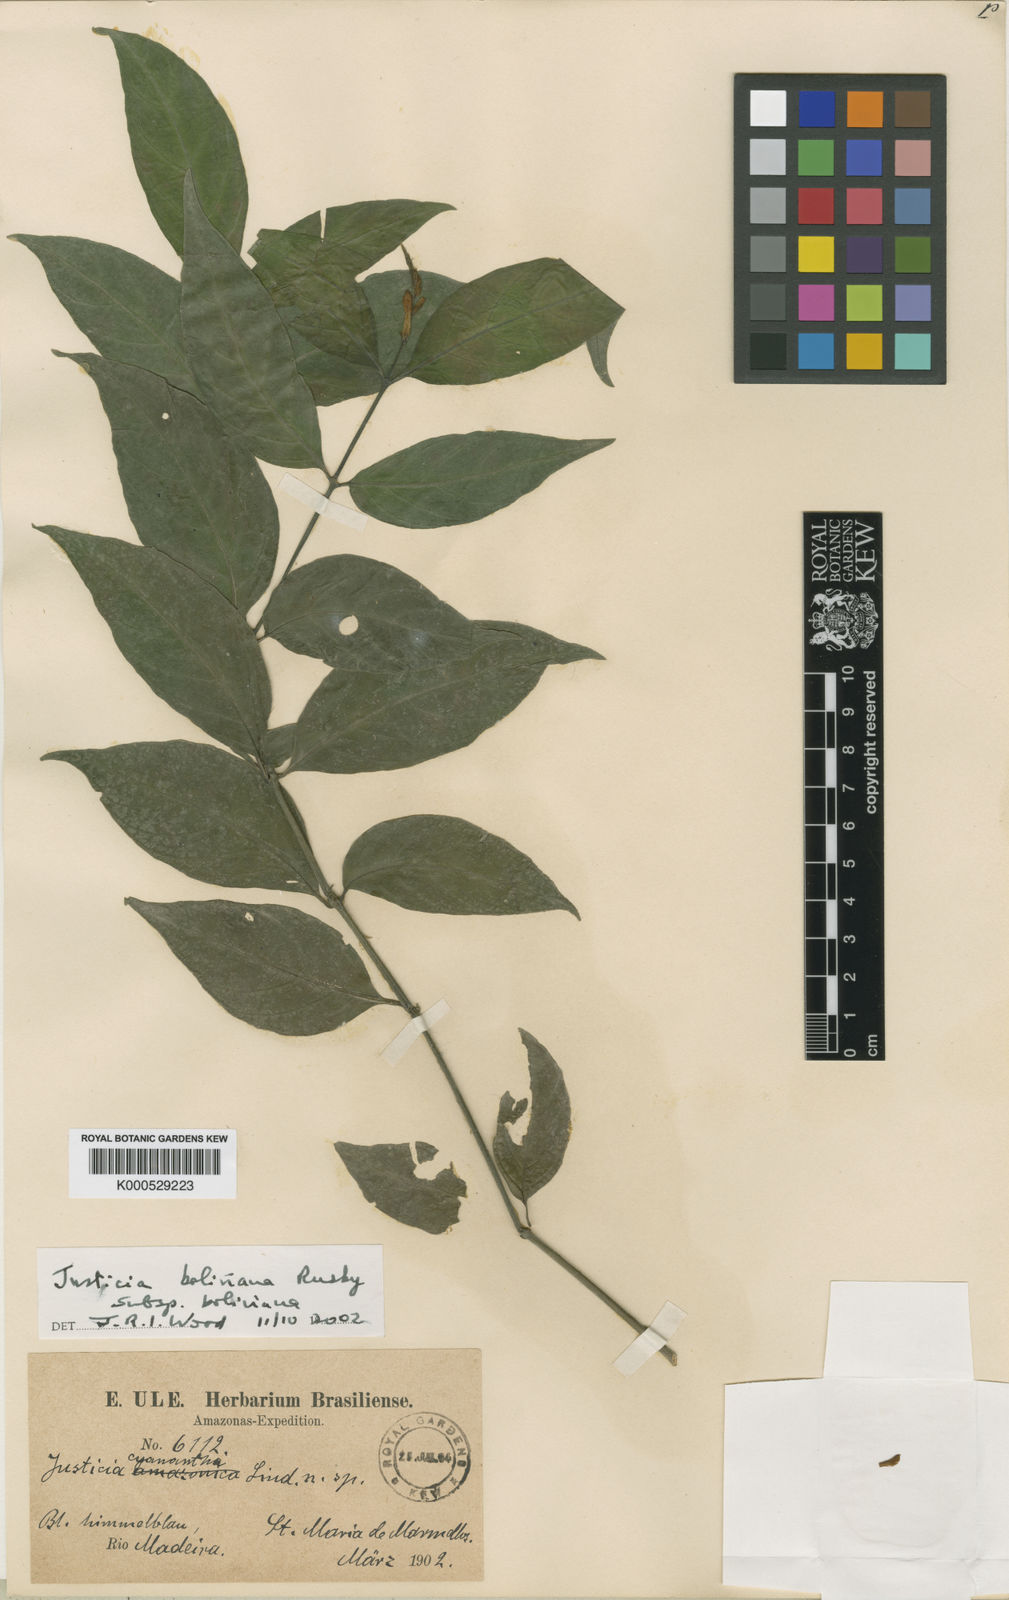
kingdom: Plantae
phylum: Tracheophyta
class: Magnoliopsida
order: Lamiales
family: Acanthaceae
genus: Justicia
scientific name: Justicia boliviana
